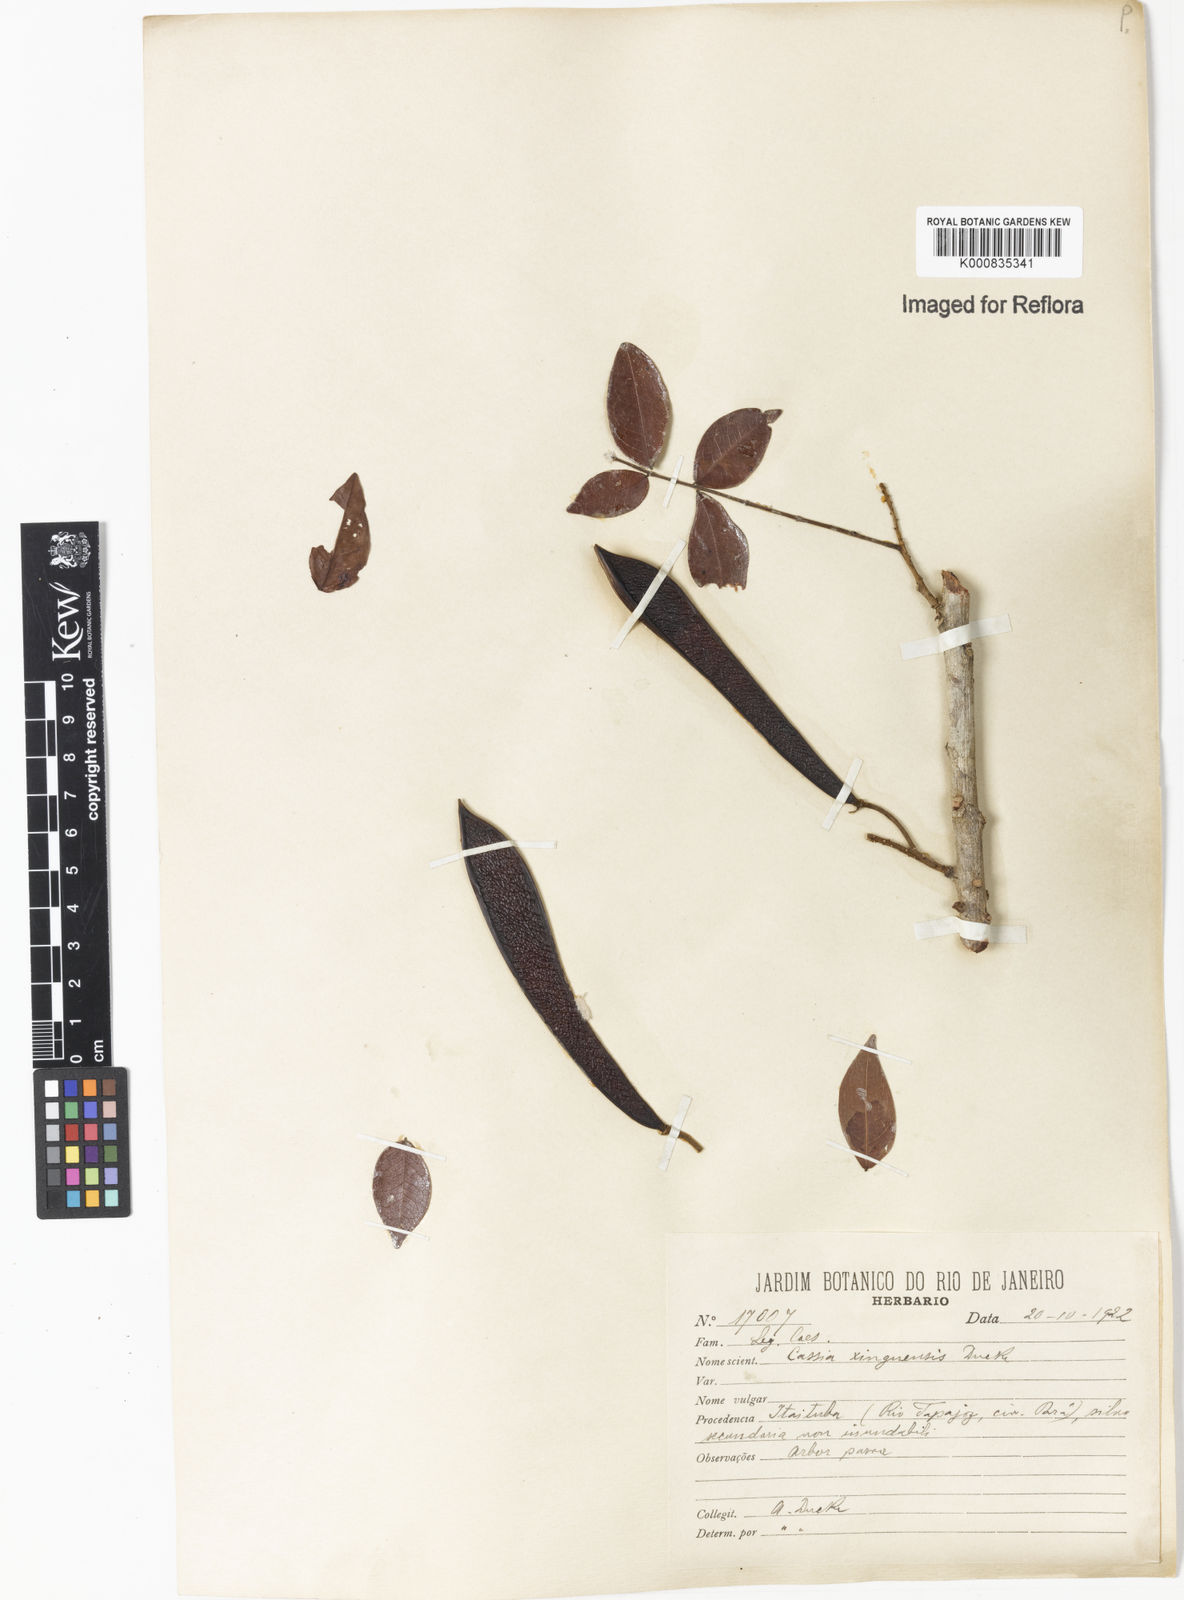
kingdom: Plantae
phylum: Tracheophyta
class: Magnoliopsida
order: Fabales
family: Fabaceae
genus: Chamaecrista
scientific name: Chamaecrista xinguensis
